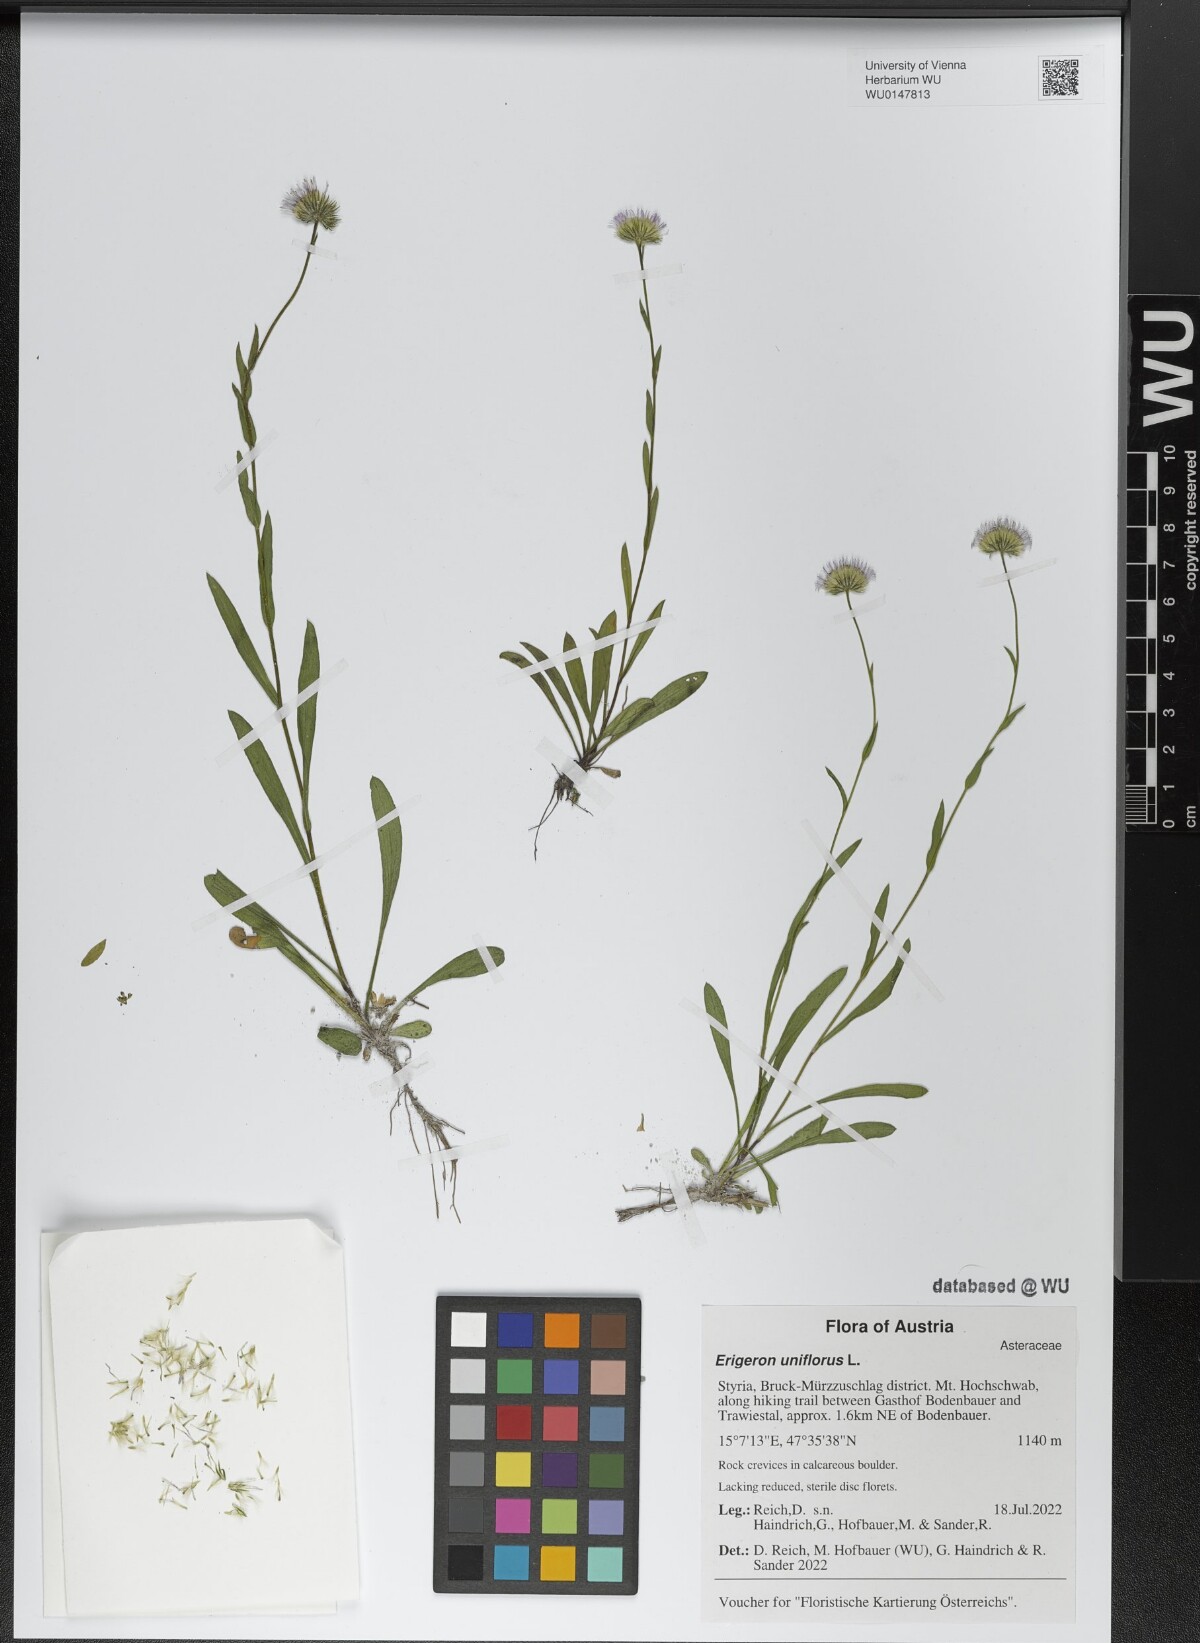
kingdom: Plantae
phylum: Tracheophyta
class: Magnoliopsida
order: Asterales
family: Asteraceae
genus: Erigeron
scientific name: Erigeron uniflorus
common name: Northern daisy
